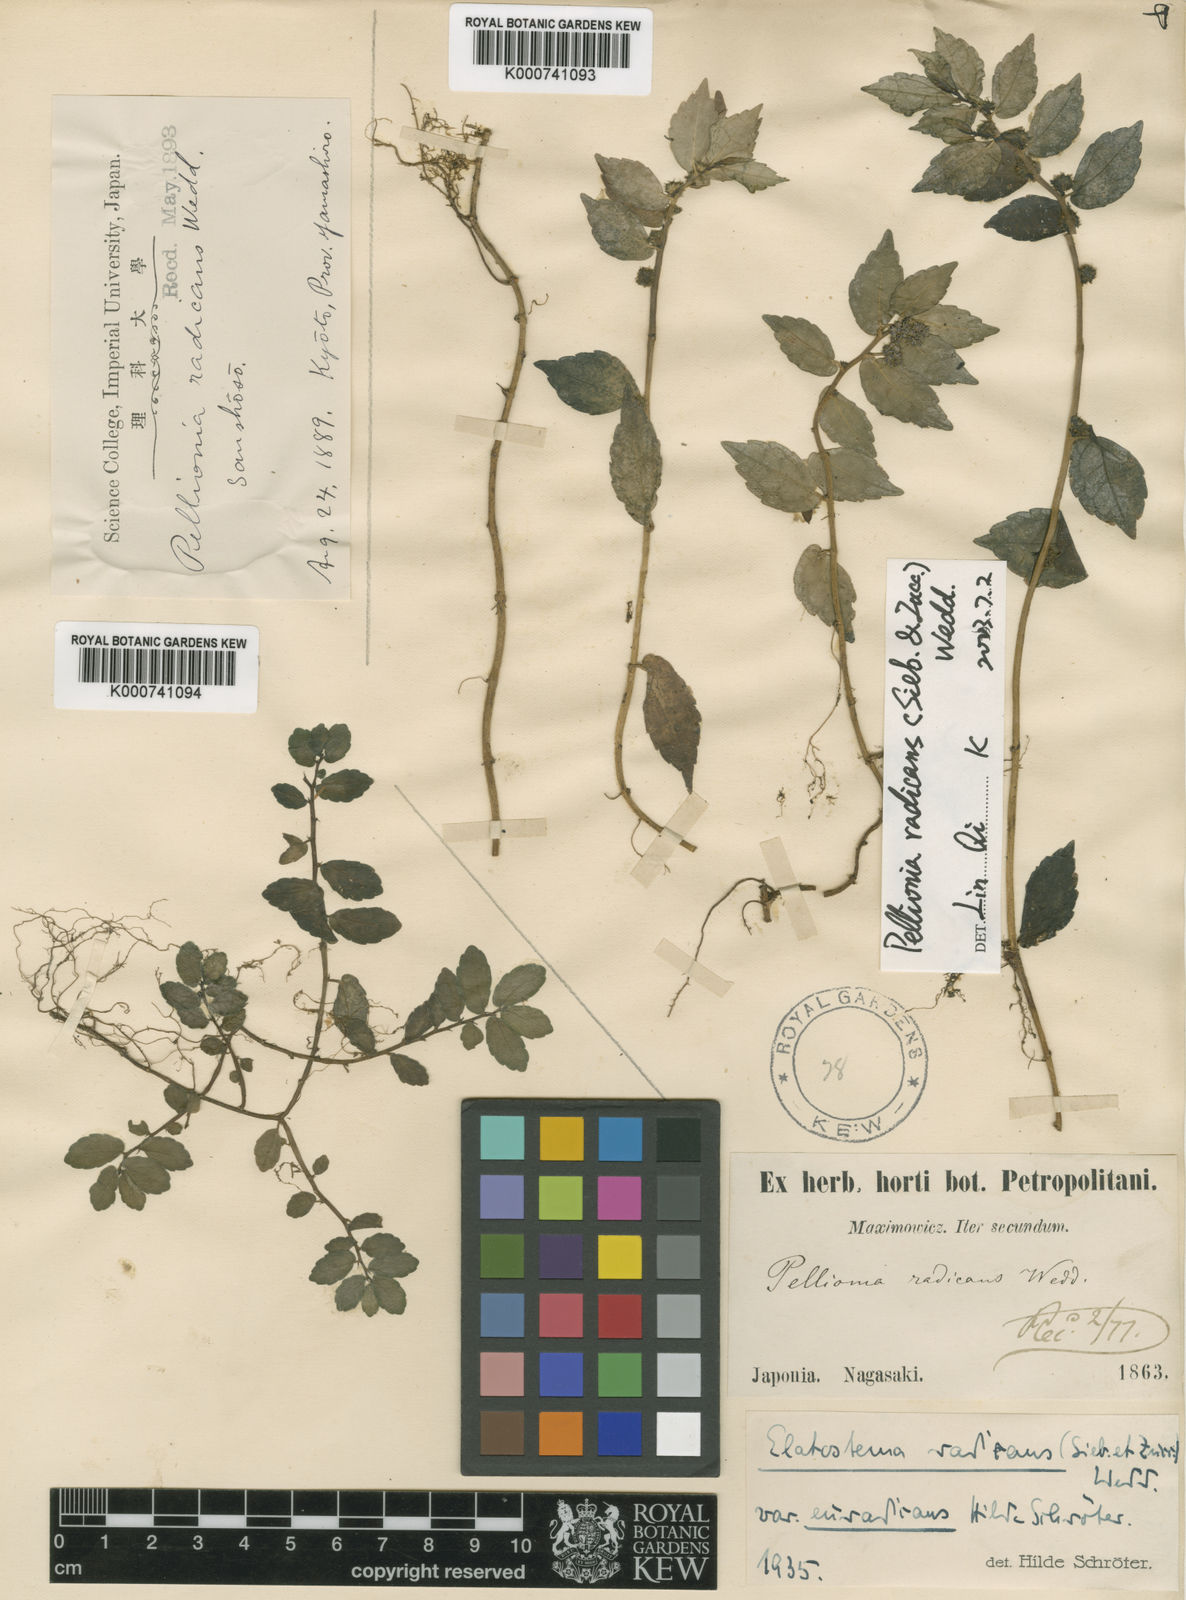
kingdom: Plantae
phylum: Tracheophyta
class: Magnoliopsida
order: Rosales
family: Urticaceae
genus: Elatostema
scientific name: Elatostema radicans
